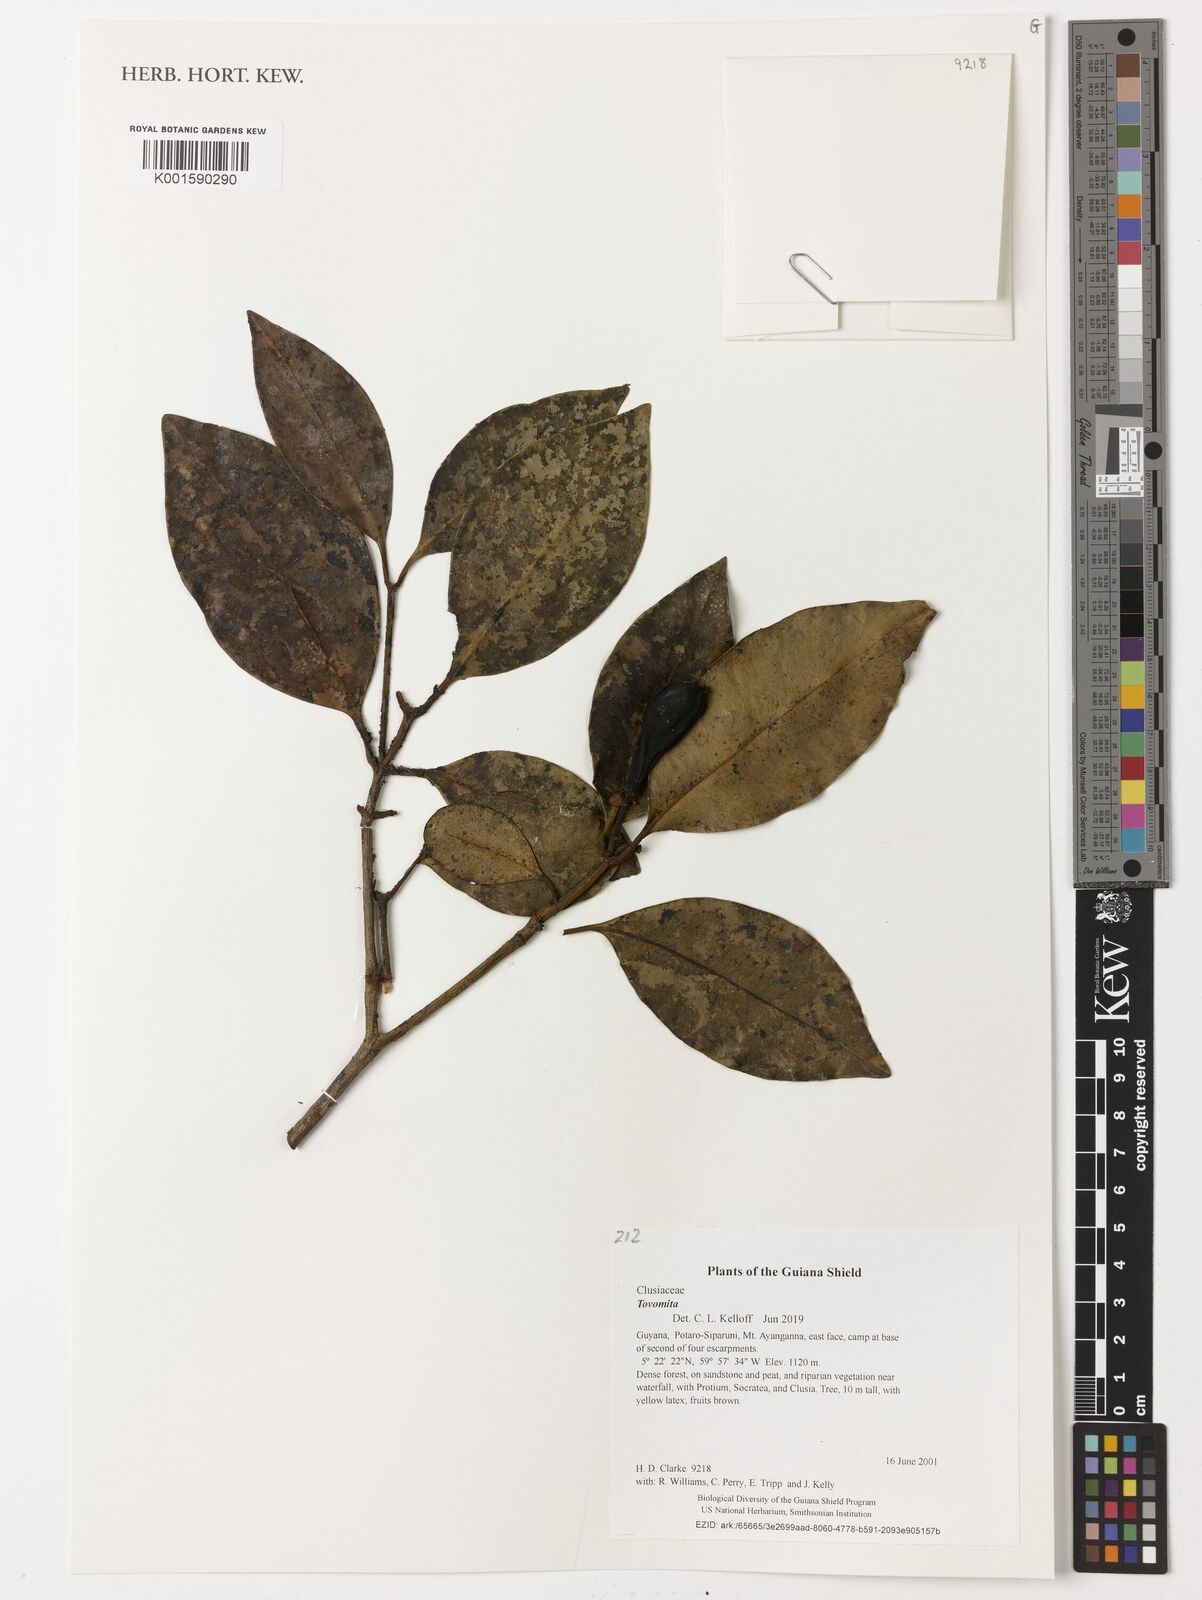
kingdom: Plantae
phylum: Tracheophyta
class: Magnoliopsida
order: Malpighiales
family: Clusiaceae
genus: Tovomita
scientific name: Tovomita
